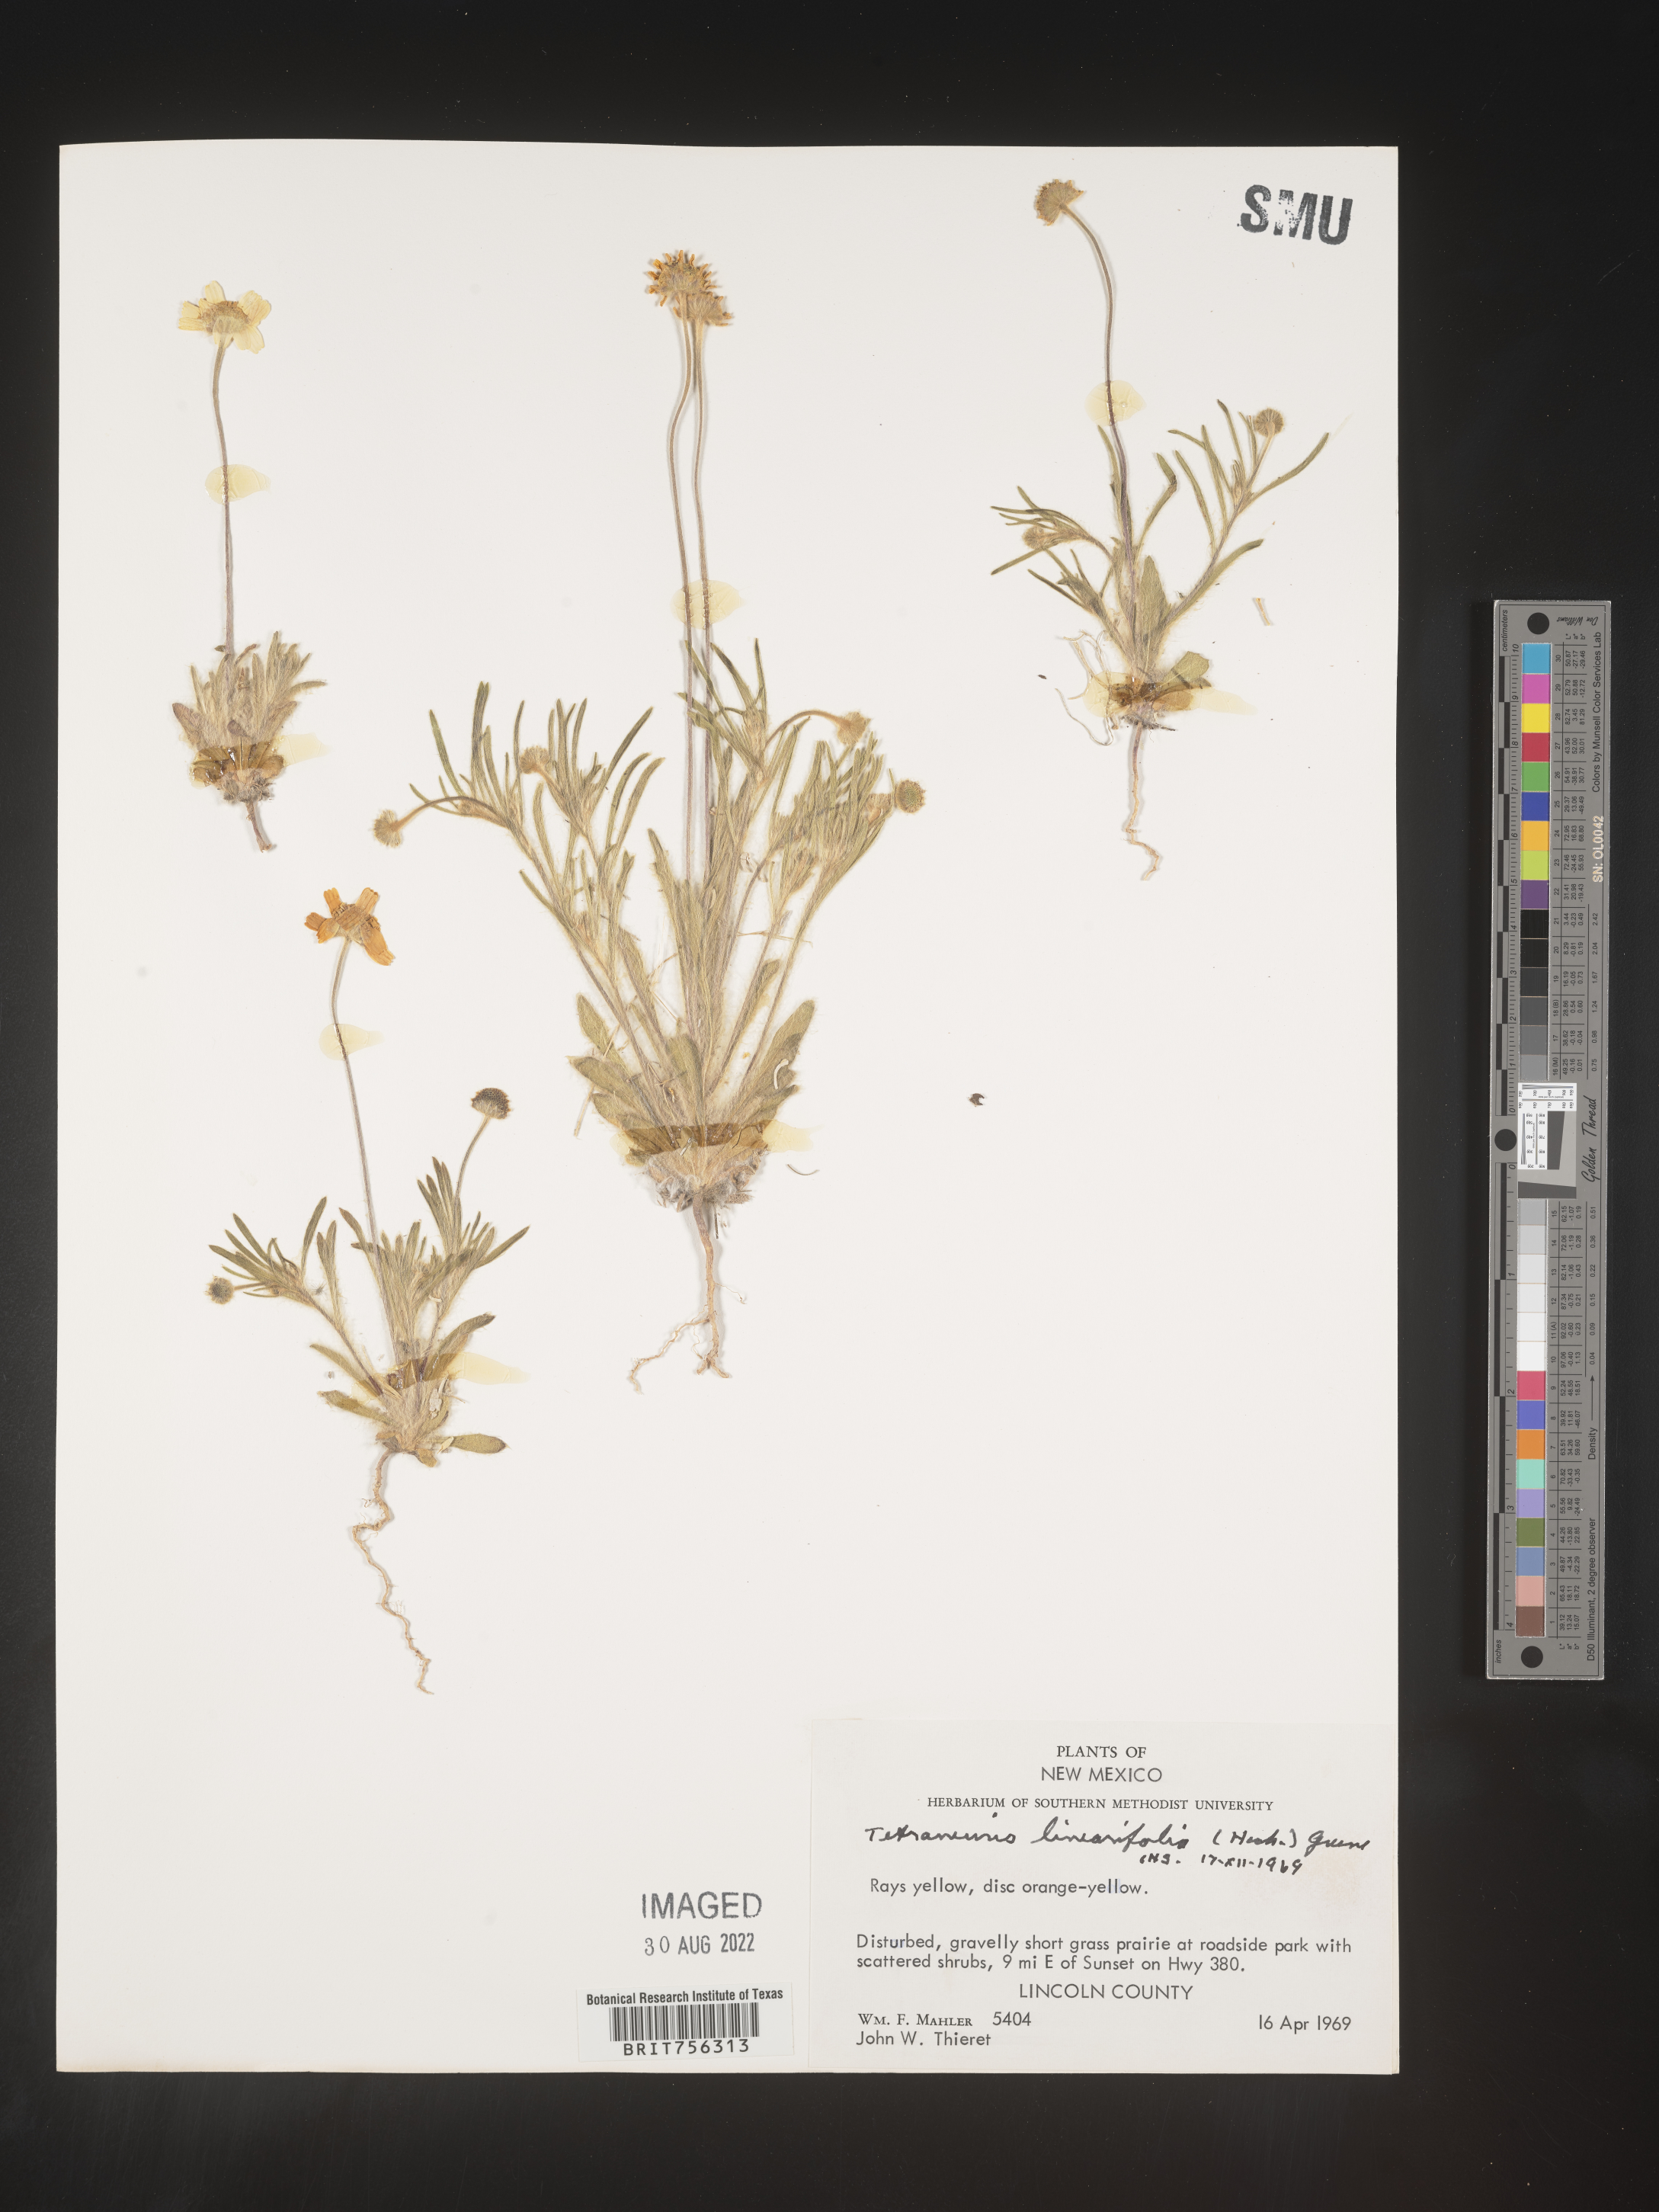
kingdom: Plantae
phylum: Tracheophyta
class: Magnoliopsida
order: Asterales
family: Asteraceae
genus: Tetraneuris
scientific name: Tetraneuris linearifolia
